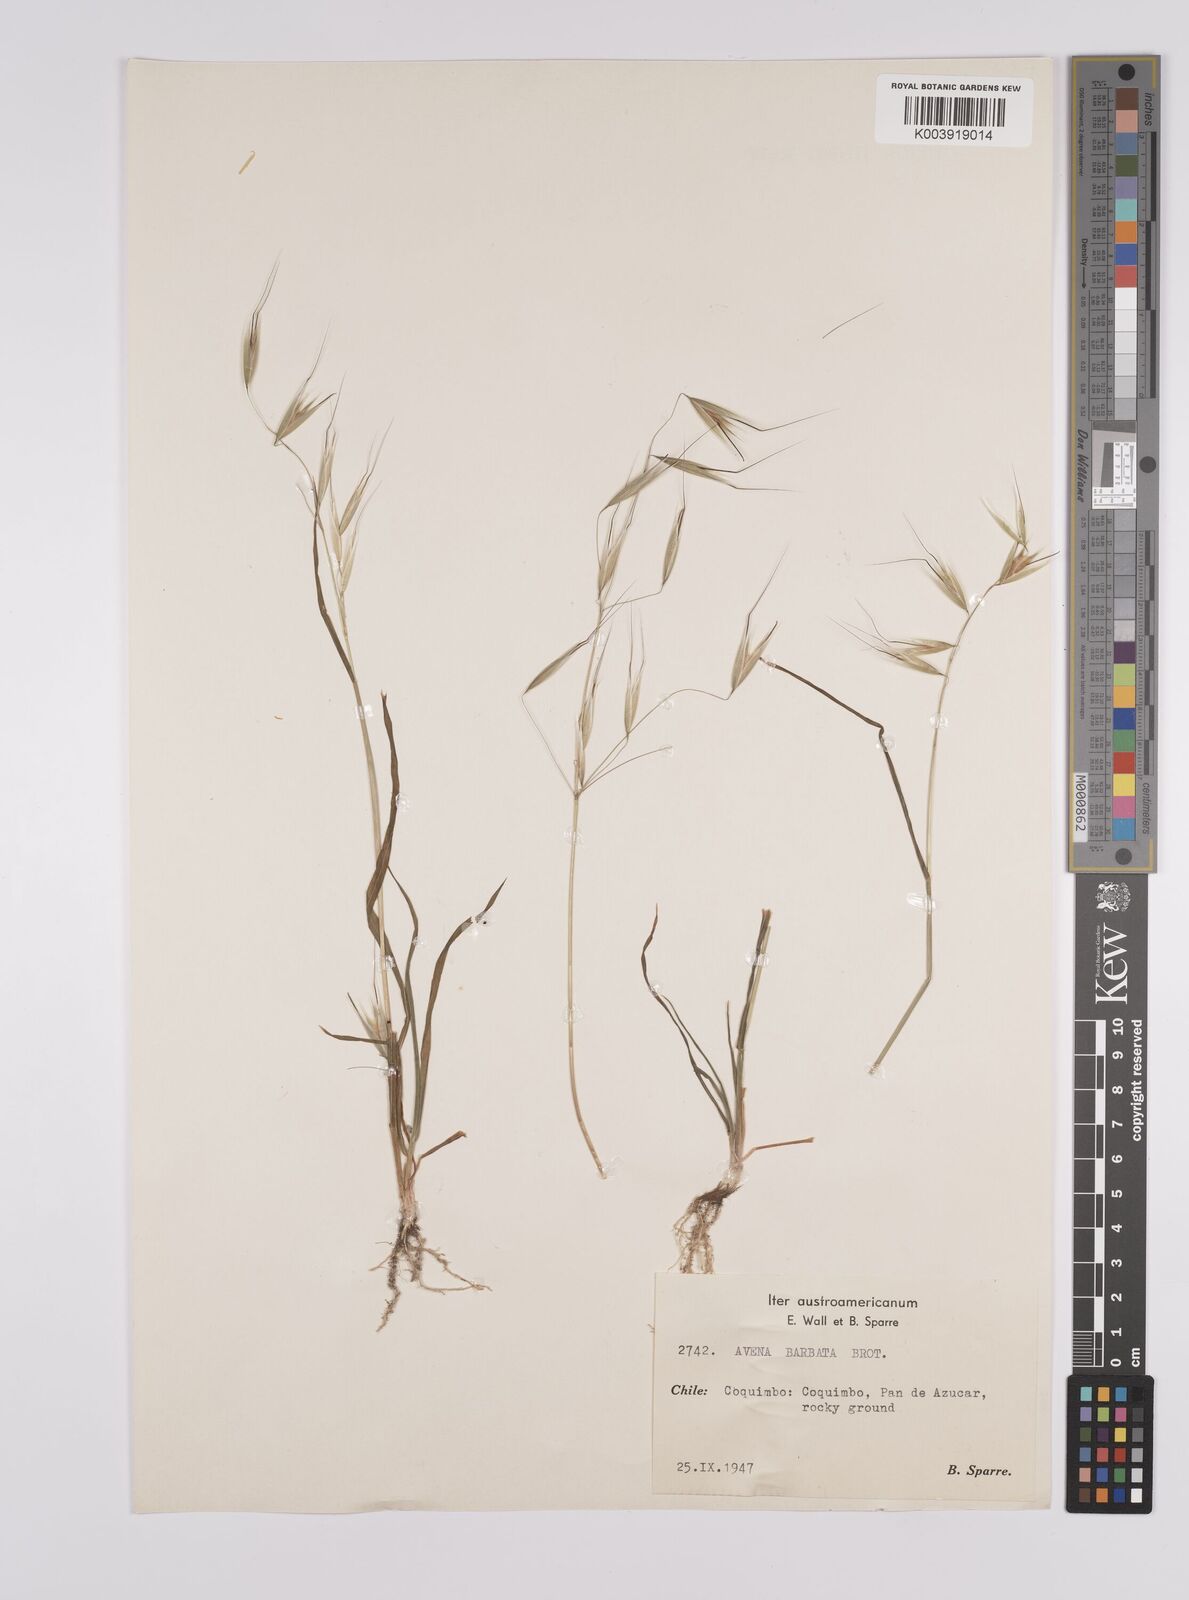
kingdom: Plantae
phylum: Tracheophyta
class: Liliopsida
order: Poales
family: Poaceae
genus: Avena
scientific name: Avena barbata
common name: Slender oat
